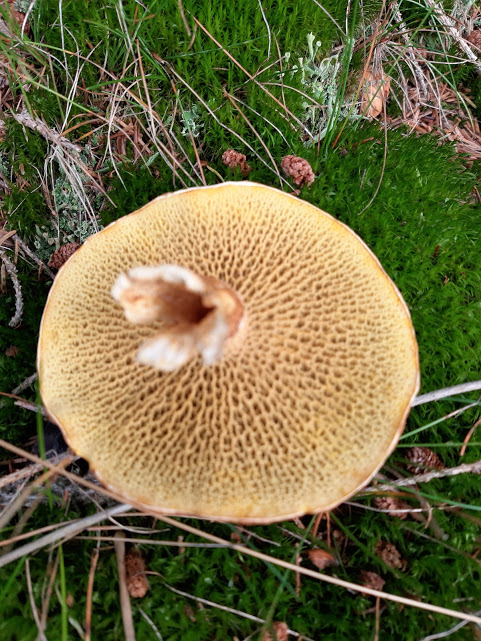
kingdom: Fungi
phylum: Basidiomycota
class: Agaricomycetes
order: Boletales
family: Suillaceae
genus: Suillus
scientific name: Suillus cavipes
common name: hulstokket slimrørhat
